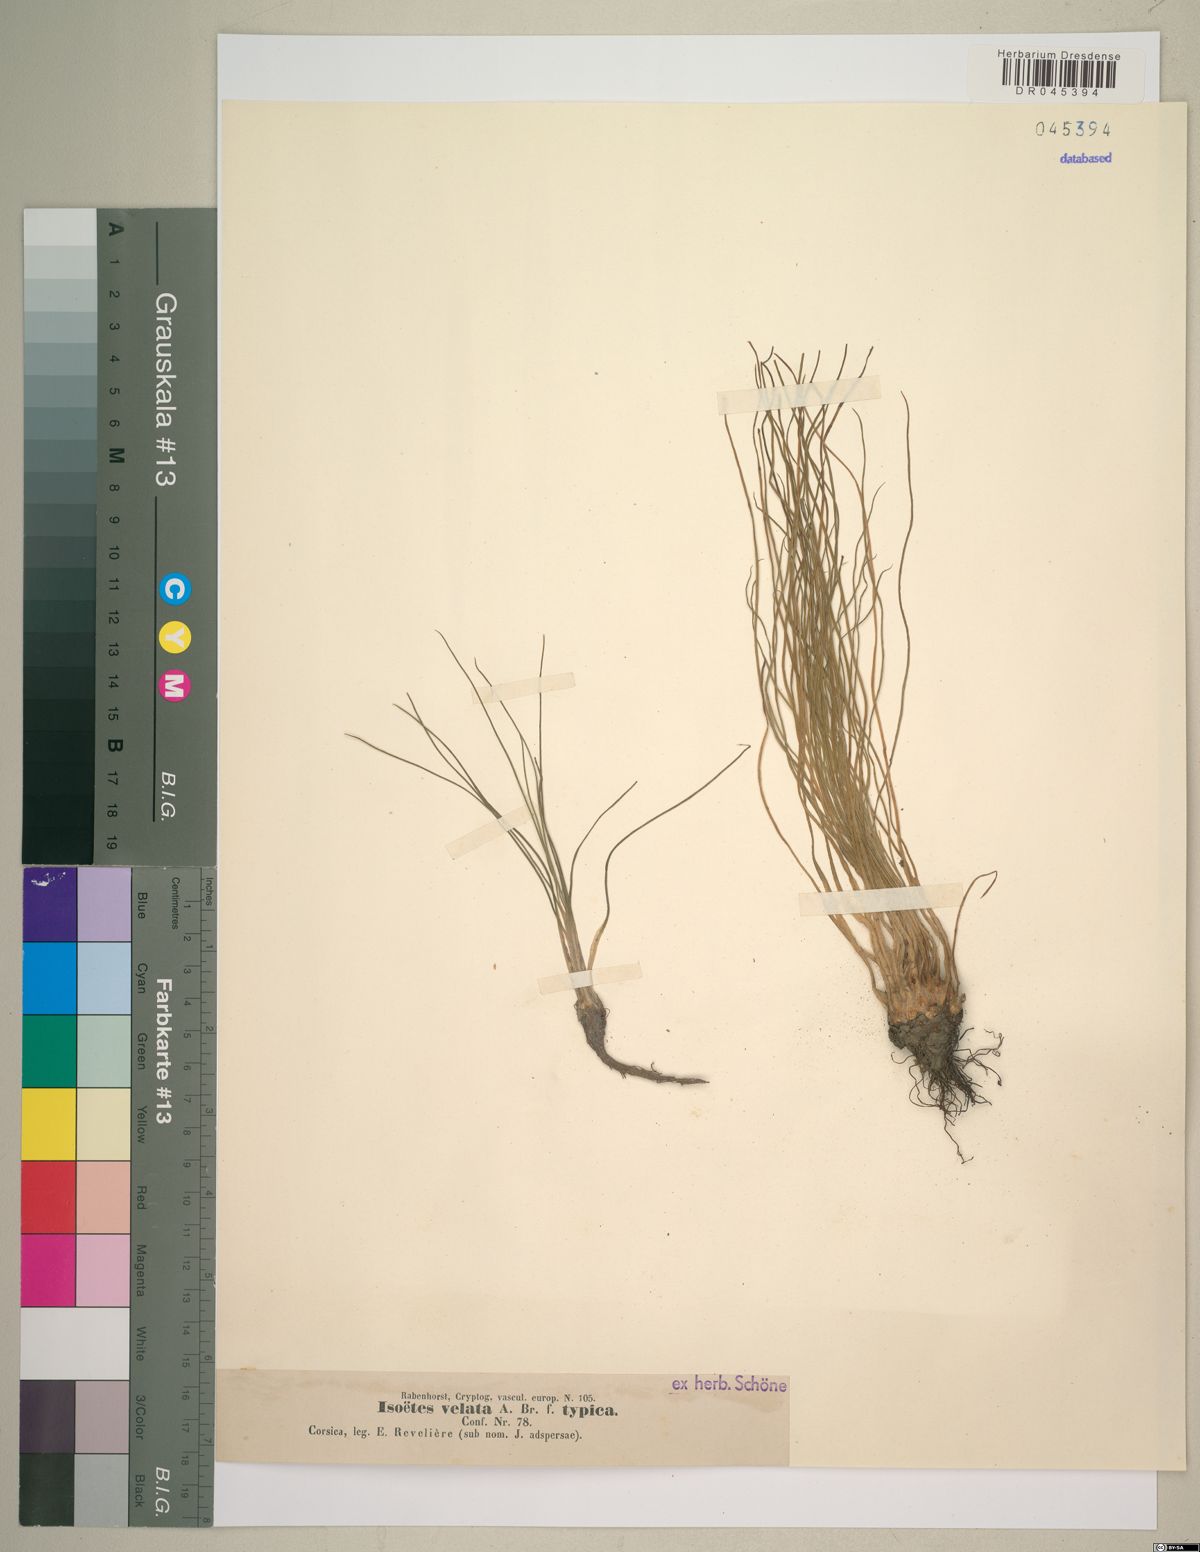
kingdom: Plantae
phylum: Tracheophyta
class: Lycopodiopsida
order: Isoetales
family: Isoetaceae
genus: Isoetes
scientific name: Isoetes longissima
